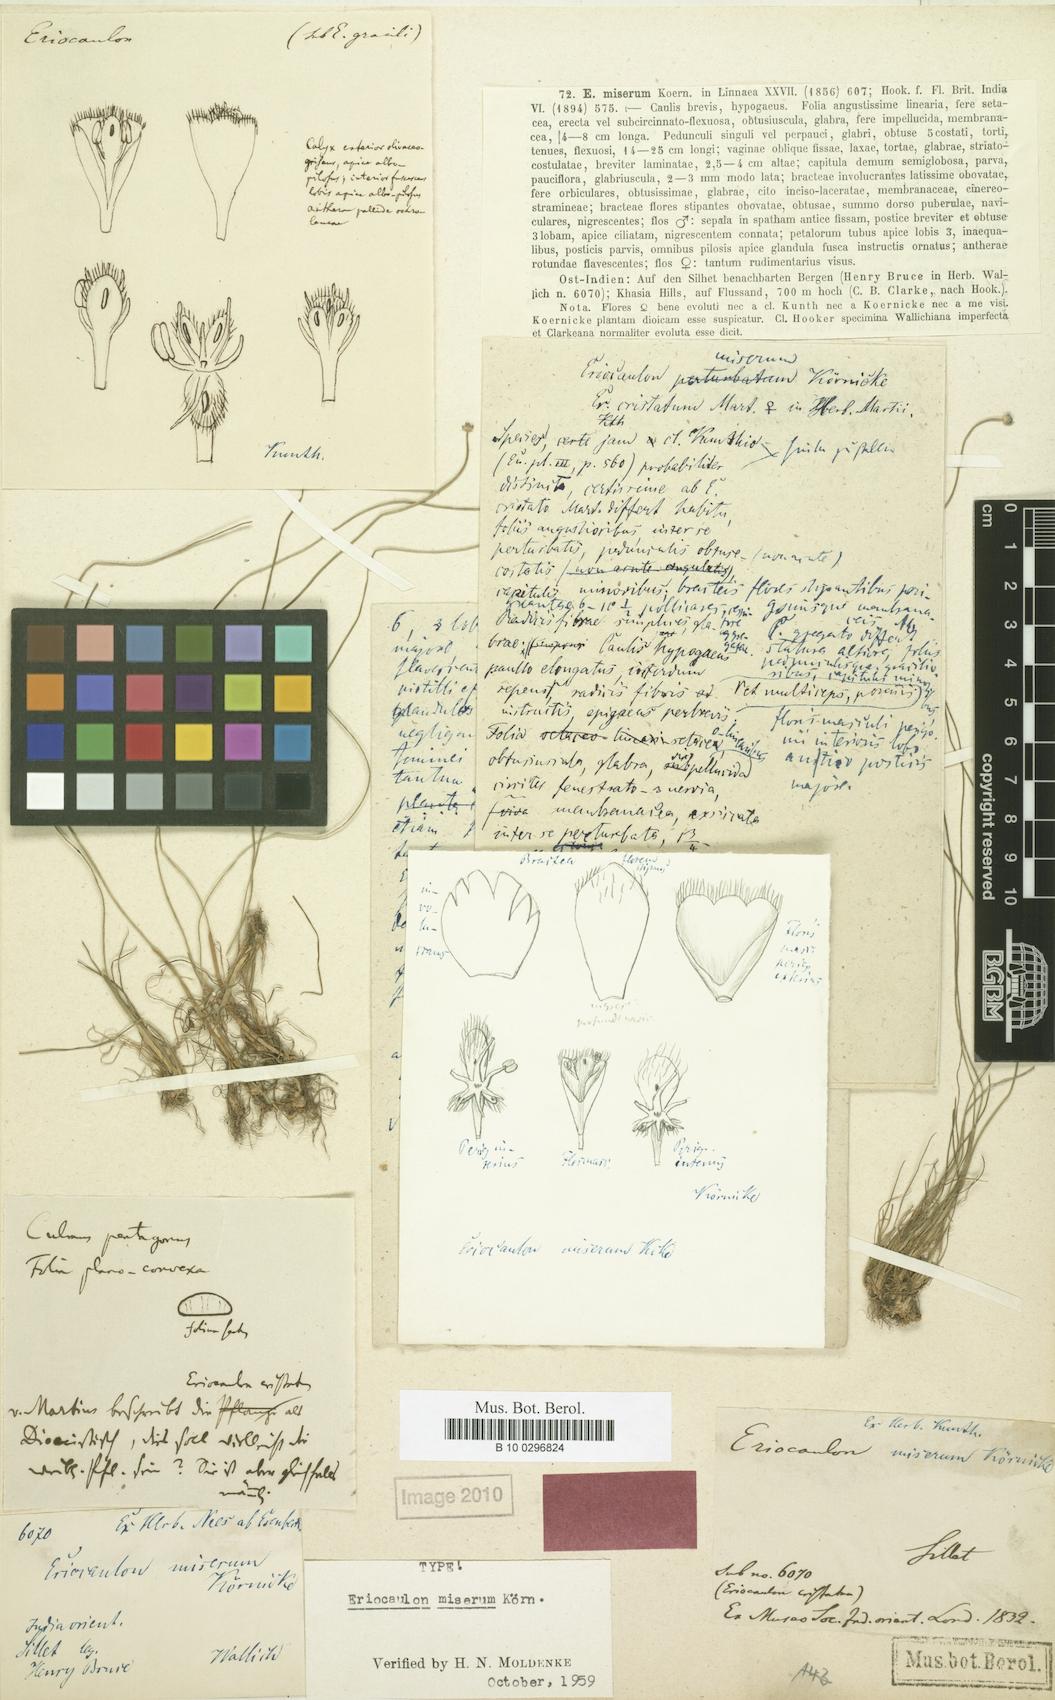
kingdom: Plantae
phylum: Tracheophyta
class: Liliopsida
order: Poales
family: Eriocaulaceae
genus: Eriocaulon
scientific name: Eriocaulon miserum
